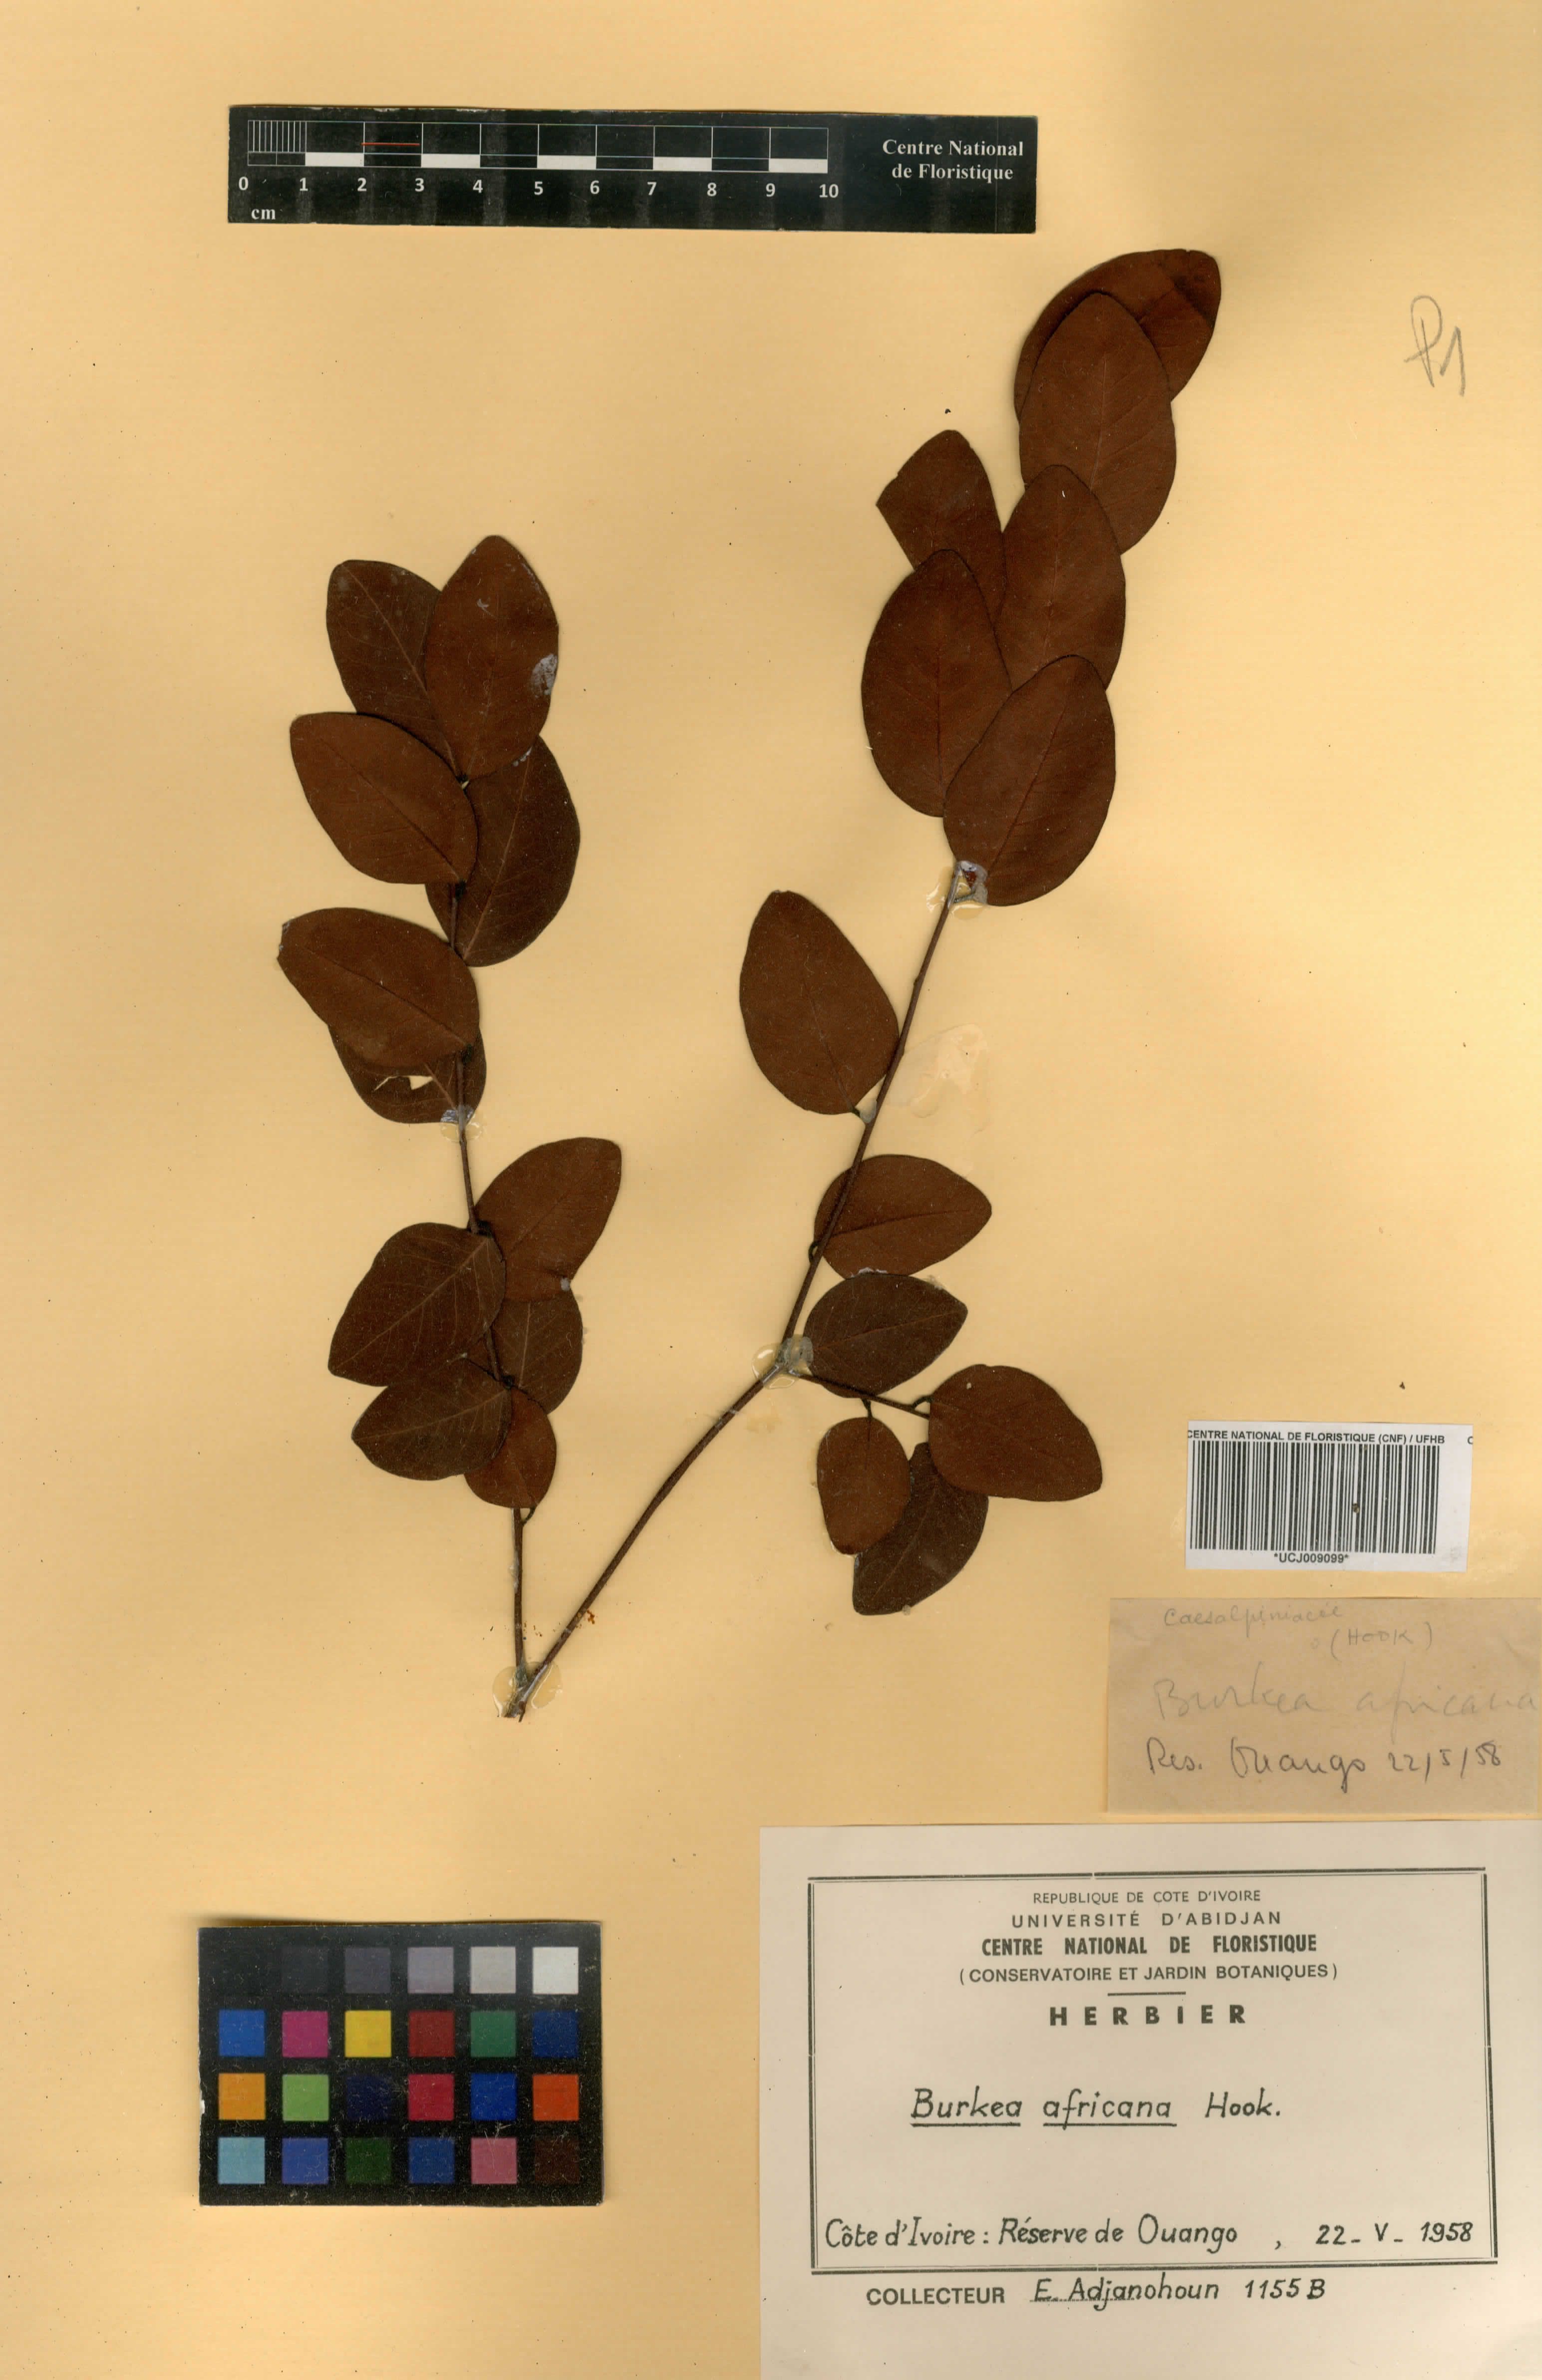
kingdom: Plantae
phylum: Tracheophyta
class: Magnoliopsida
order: Fabales
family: Fabaceae
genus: Burkea
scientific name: Burkea africana
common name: Mkalati tree
